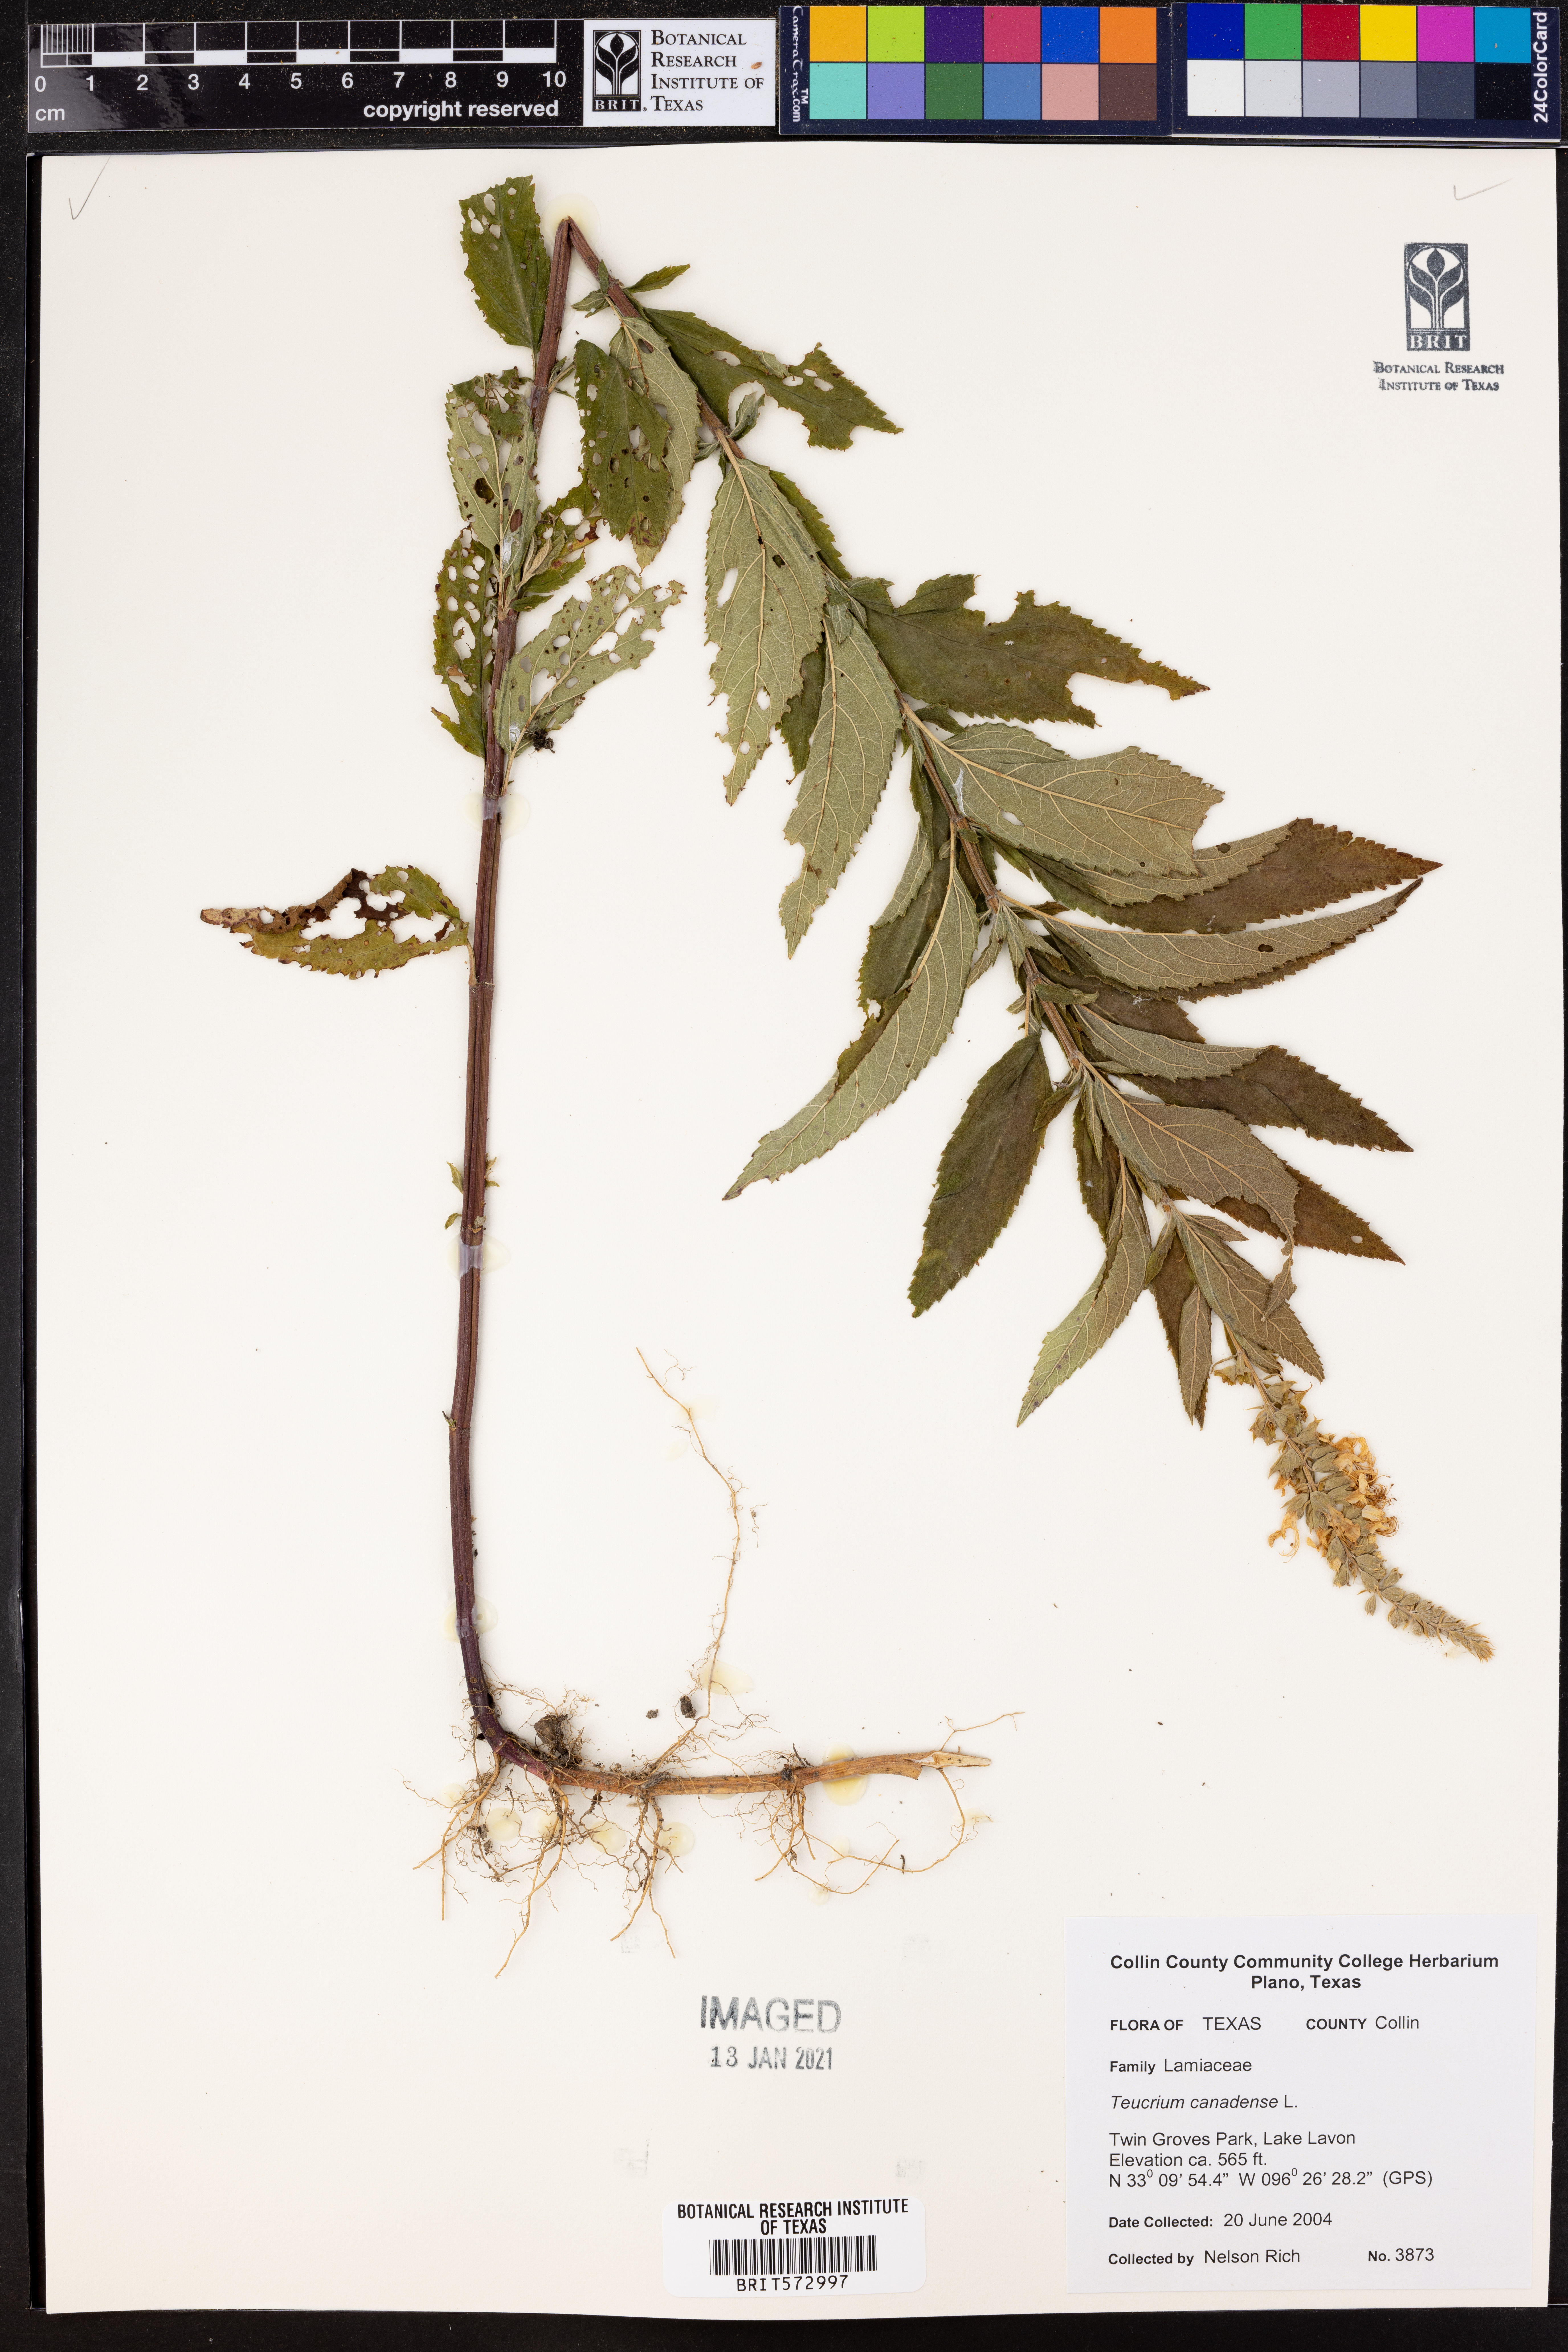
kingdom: Plantae
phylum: Tracheophyta
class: Magnoliopsida
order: Lamiales
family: Lamiaceae
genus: Teucrium
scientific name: Teucrium canadense
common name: American germander
